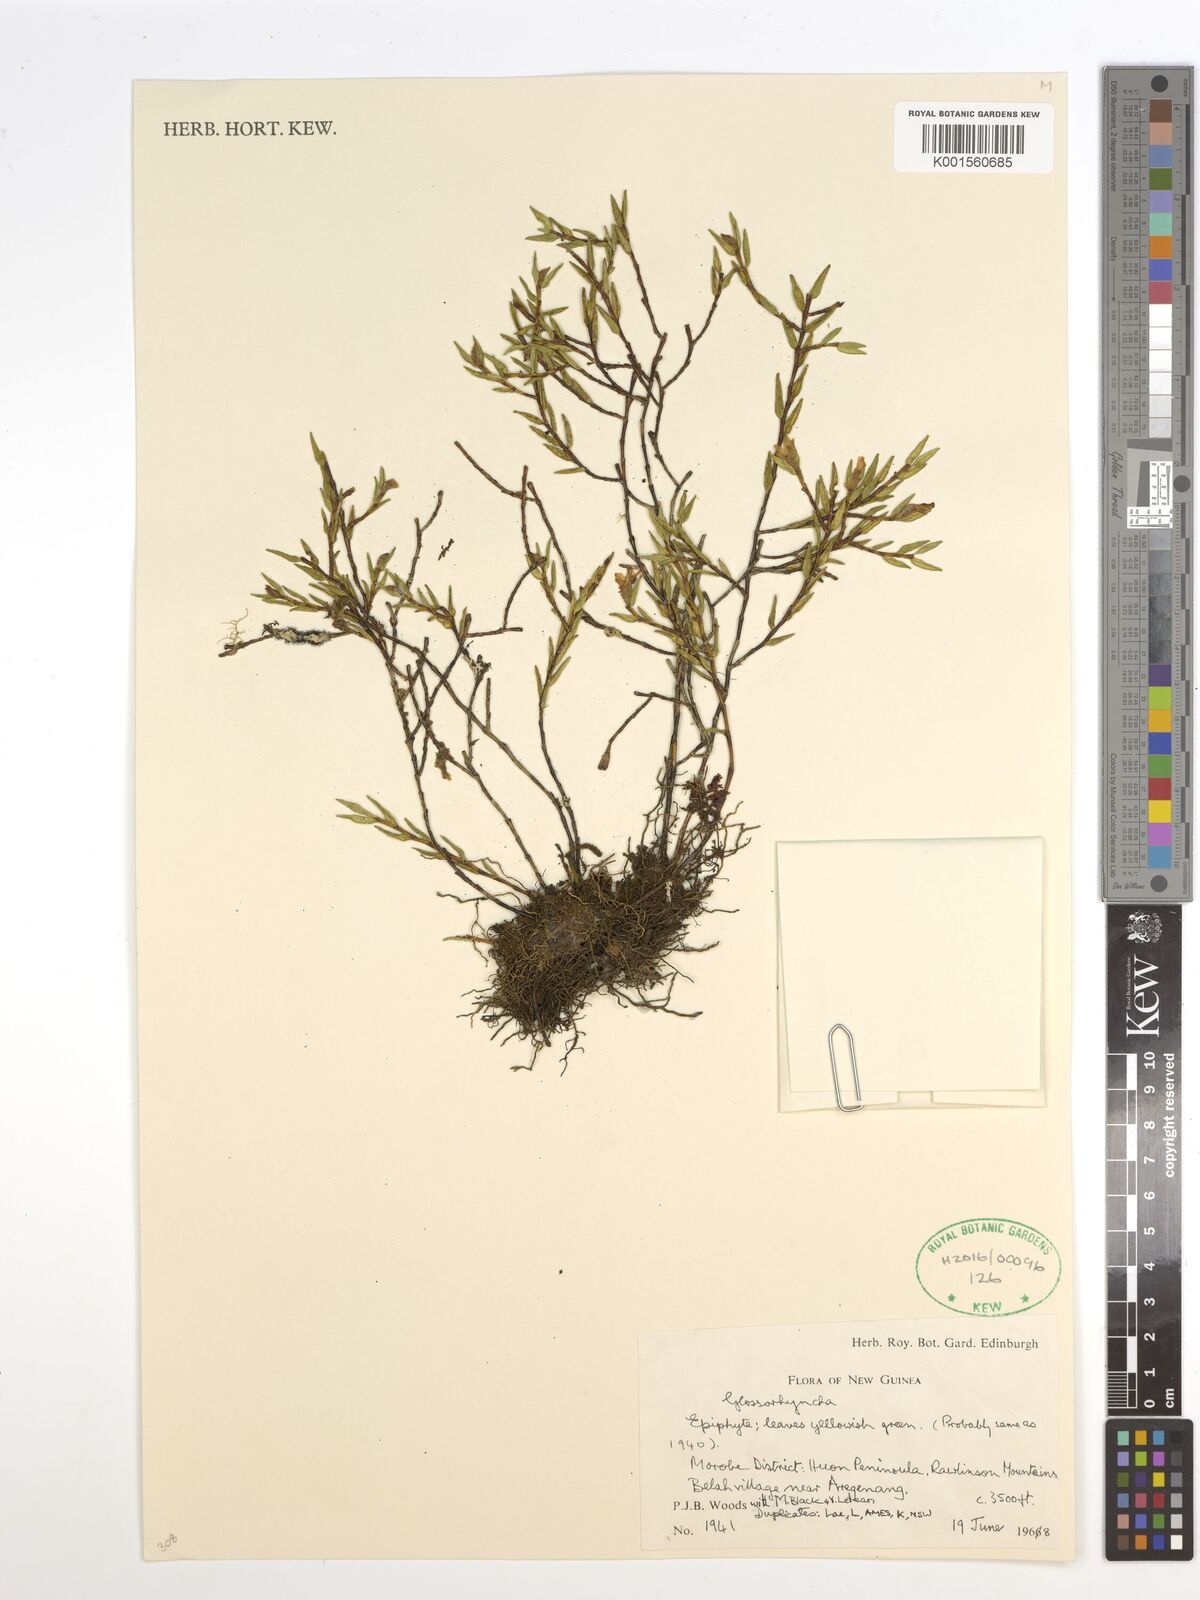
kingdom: Plantae
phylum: Tracheophyta
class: Liliopsida
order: Asparagales
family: Orchidaceae
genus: Glomera
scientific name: Glomera
